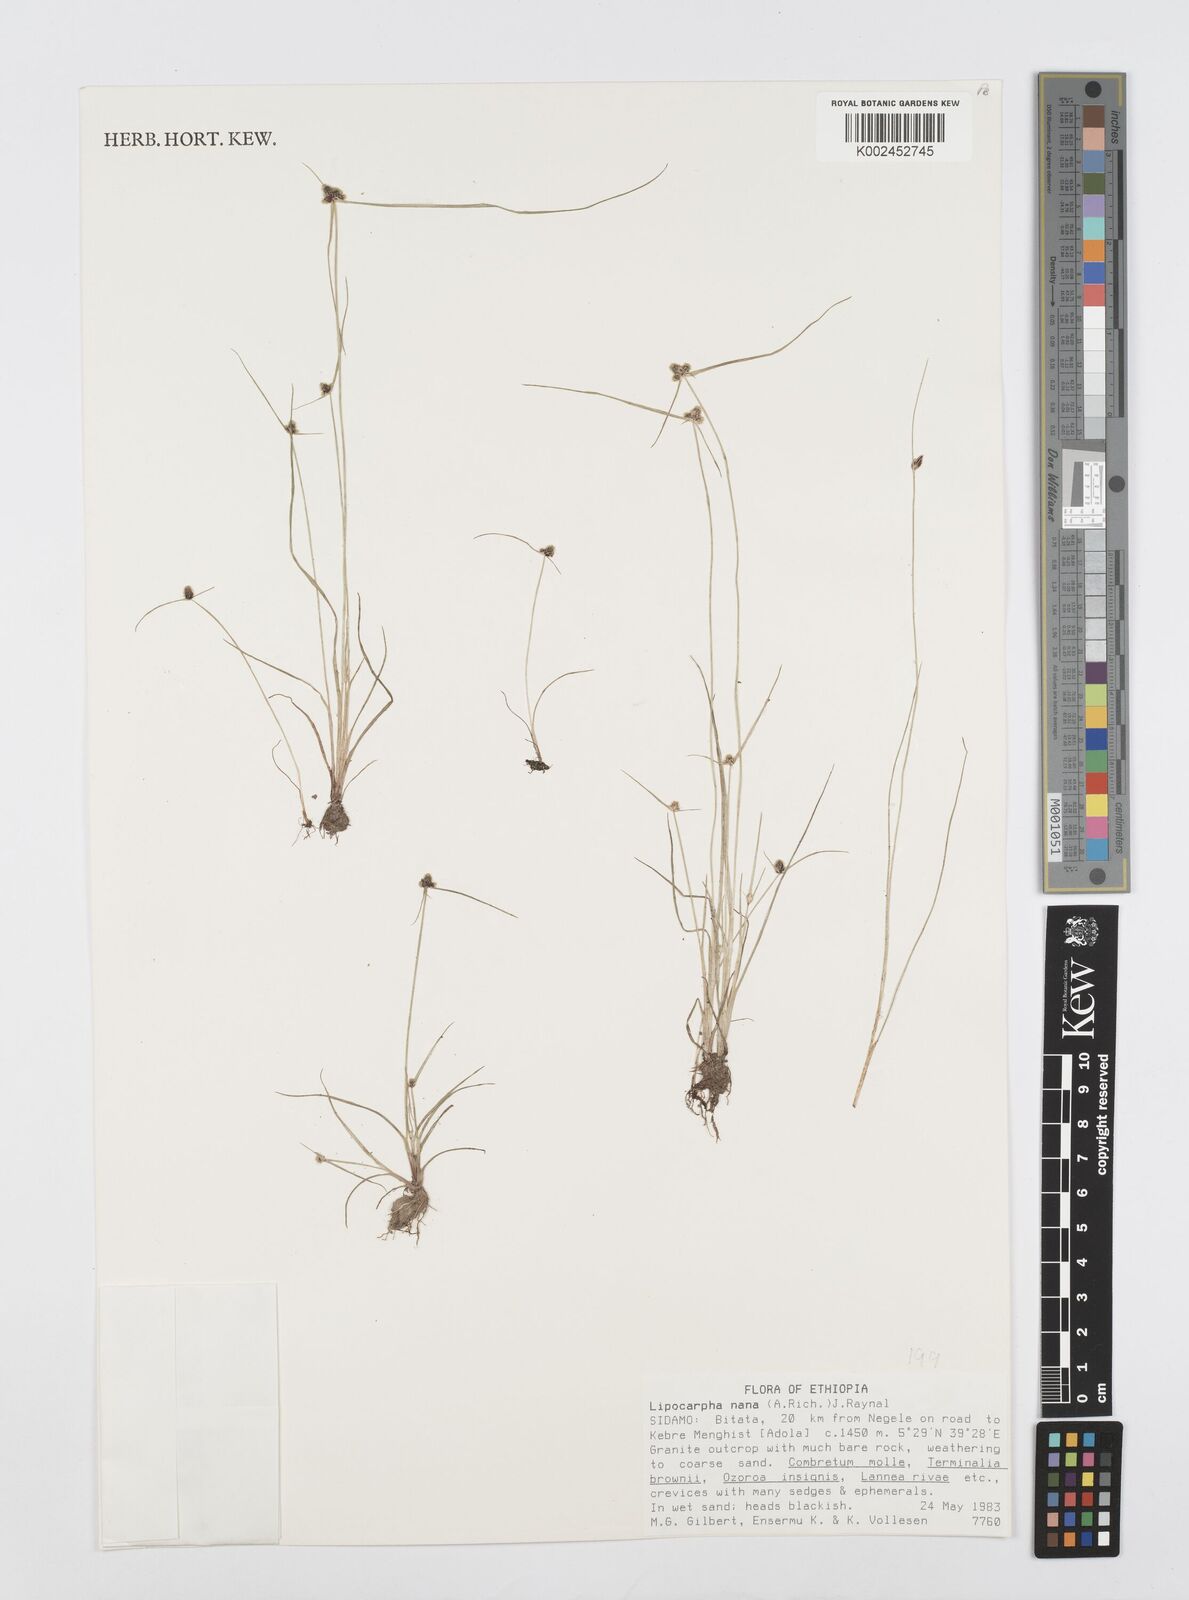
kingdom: Plantae
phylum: Tracheophyta
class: Liliopsida
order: Poales
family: Cyperaceae
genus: Cyperus
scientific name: Cyperus nanus
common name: Indian flatsedge
